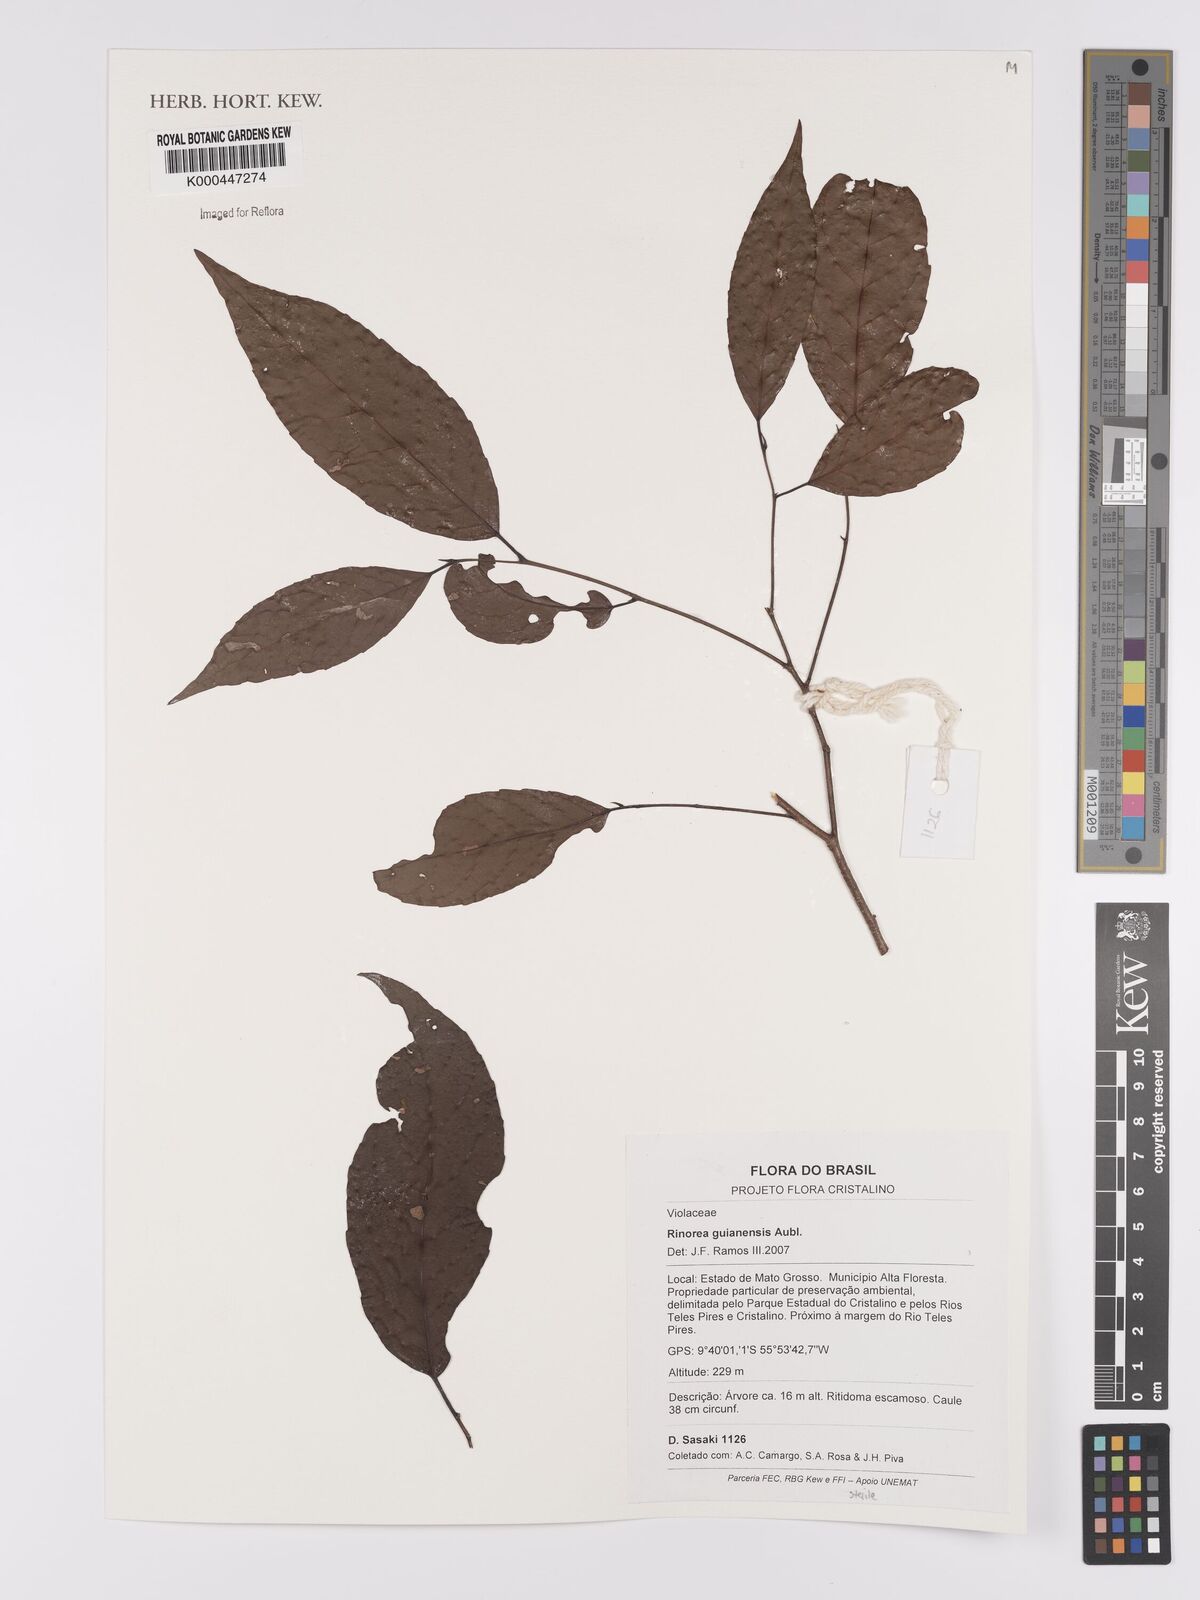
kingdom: Plantae
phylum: Tracheophyta
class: Magnoliopsida
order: Malpighiales
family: Violaceae
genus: Rinorea
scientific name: Rinorea guianensis
